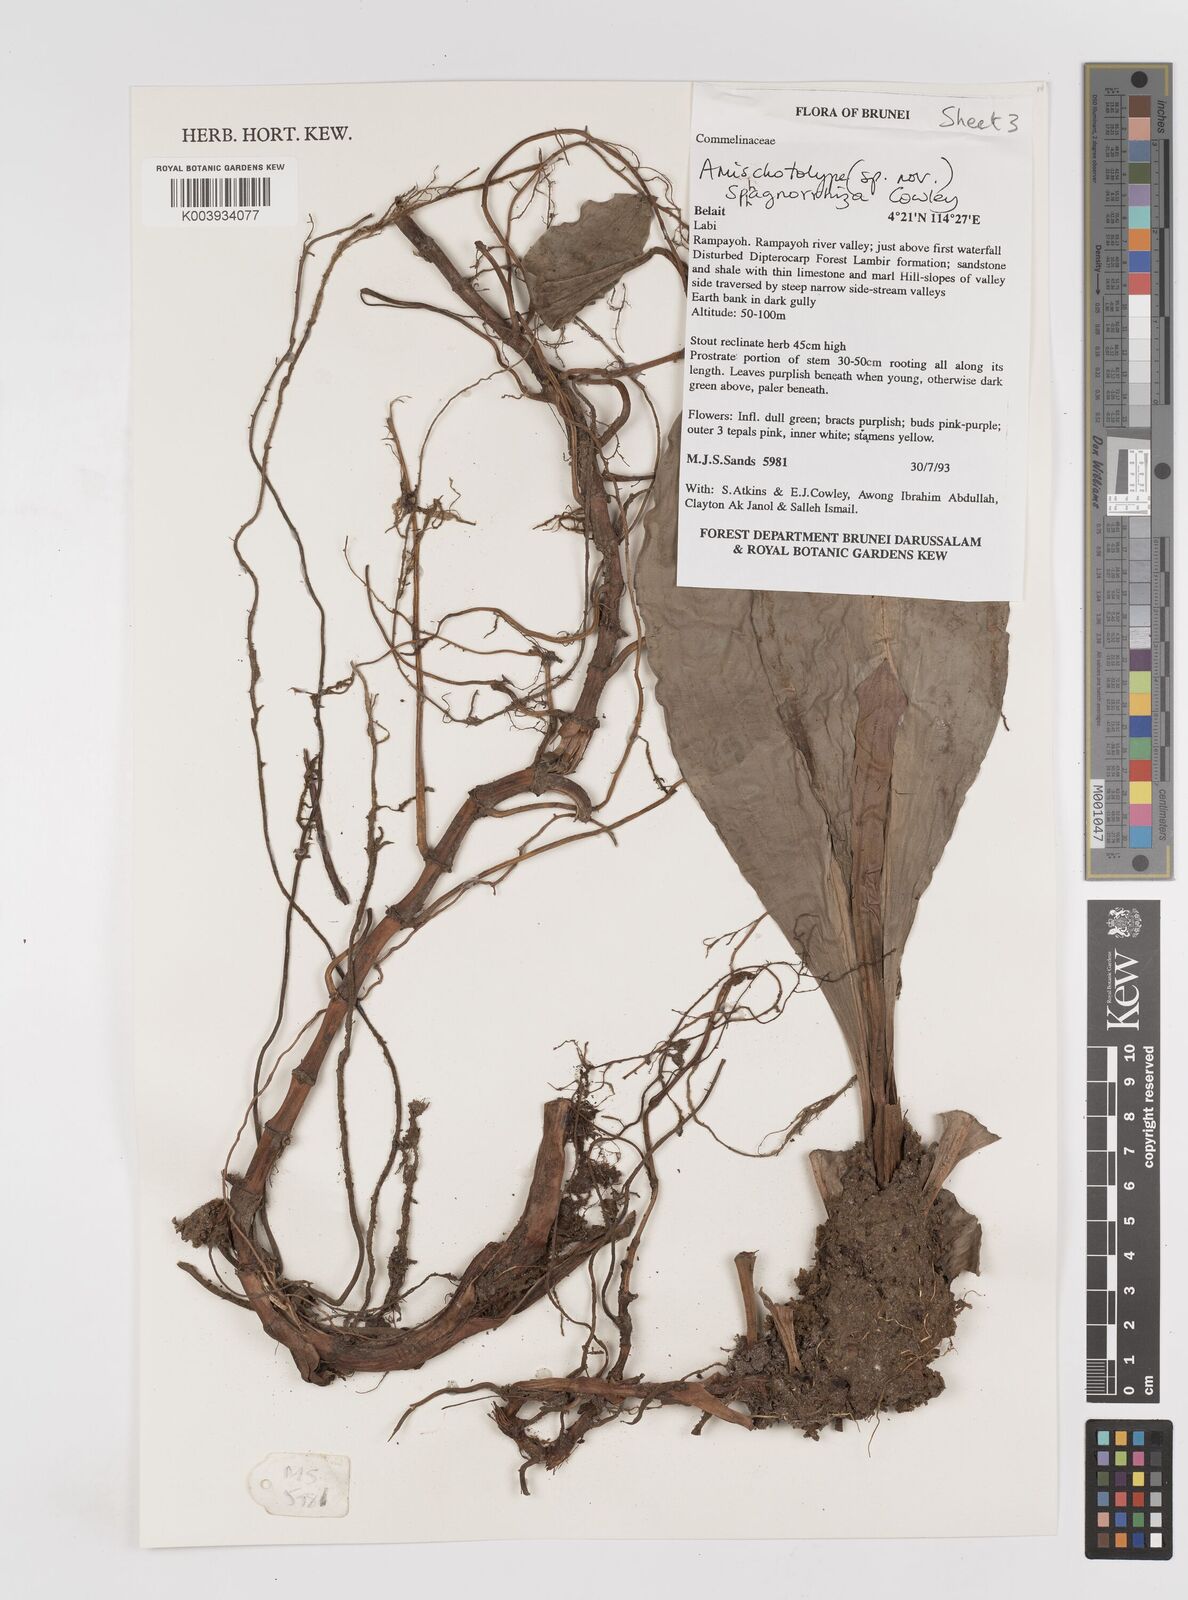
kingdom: Plantae
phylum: Tracheophyta
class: Liliopsida
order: Commelinales
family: Commelinaceae
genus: Amischotolype
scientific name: Amischotolype sphagnorrhiza
